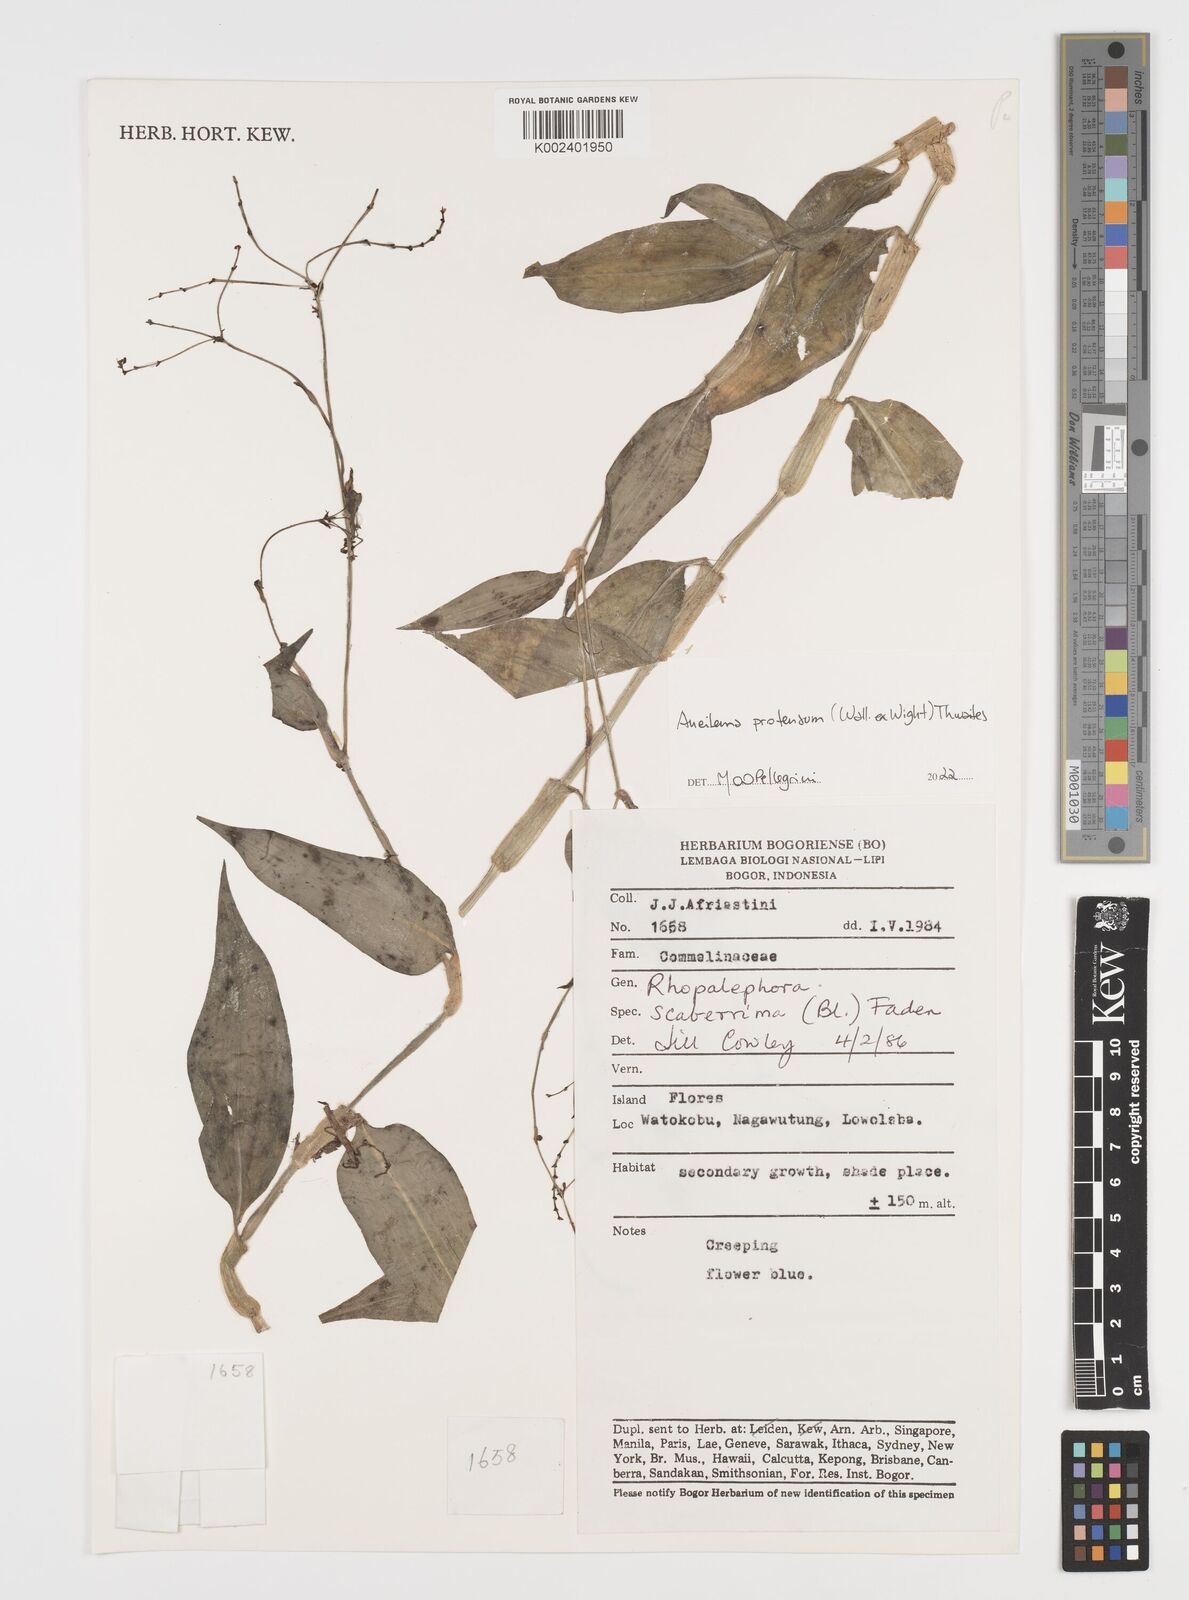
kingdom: Plantae
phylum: Tracheophyta
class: Liliopsida
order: Commelinales
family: Commelinaceae
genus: Rhopalephora
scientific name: Rhopalephora scaberrima
